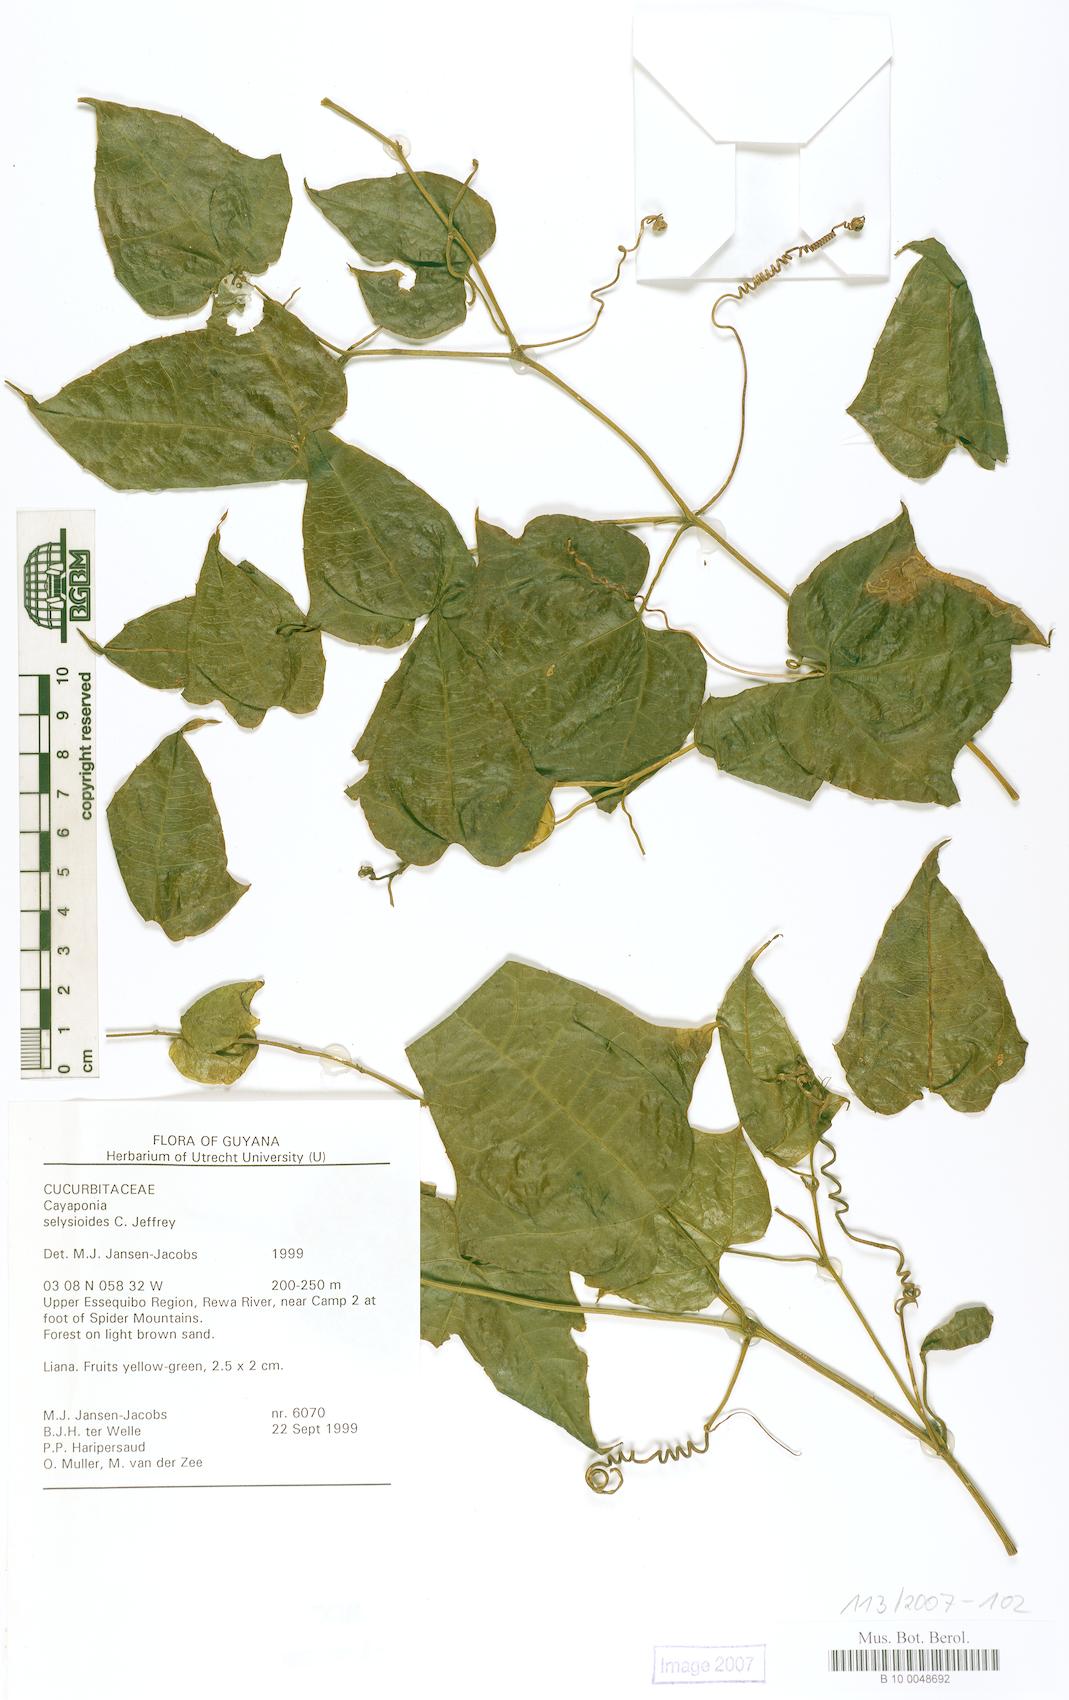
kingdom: Plantae
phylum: Tracheophyta
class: Magnoliopsida
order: Cucurbitales
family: Cucurbitaceae
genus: Cayaponia
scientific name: Cayaponia selysioides
